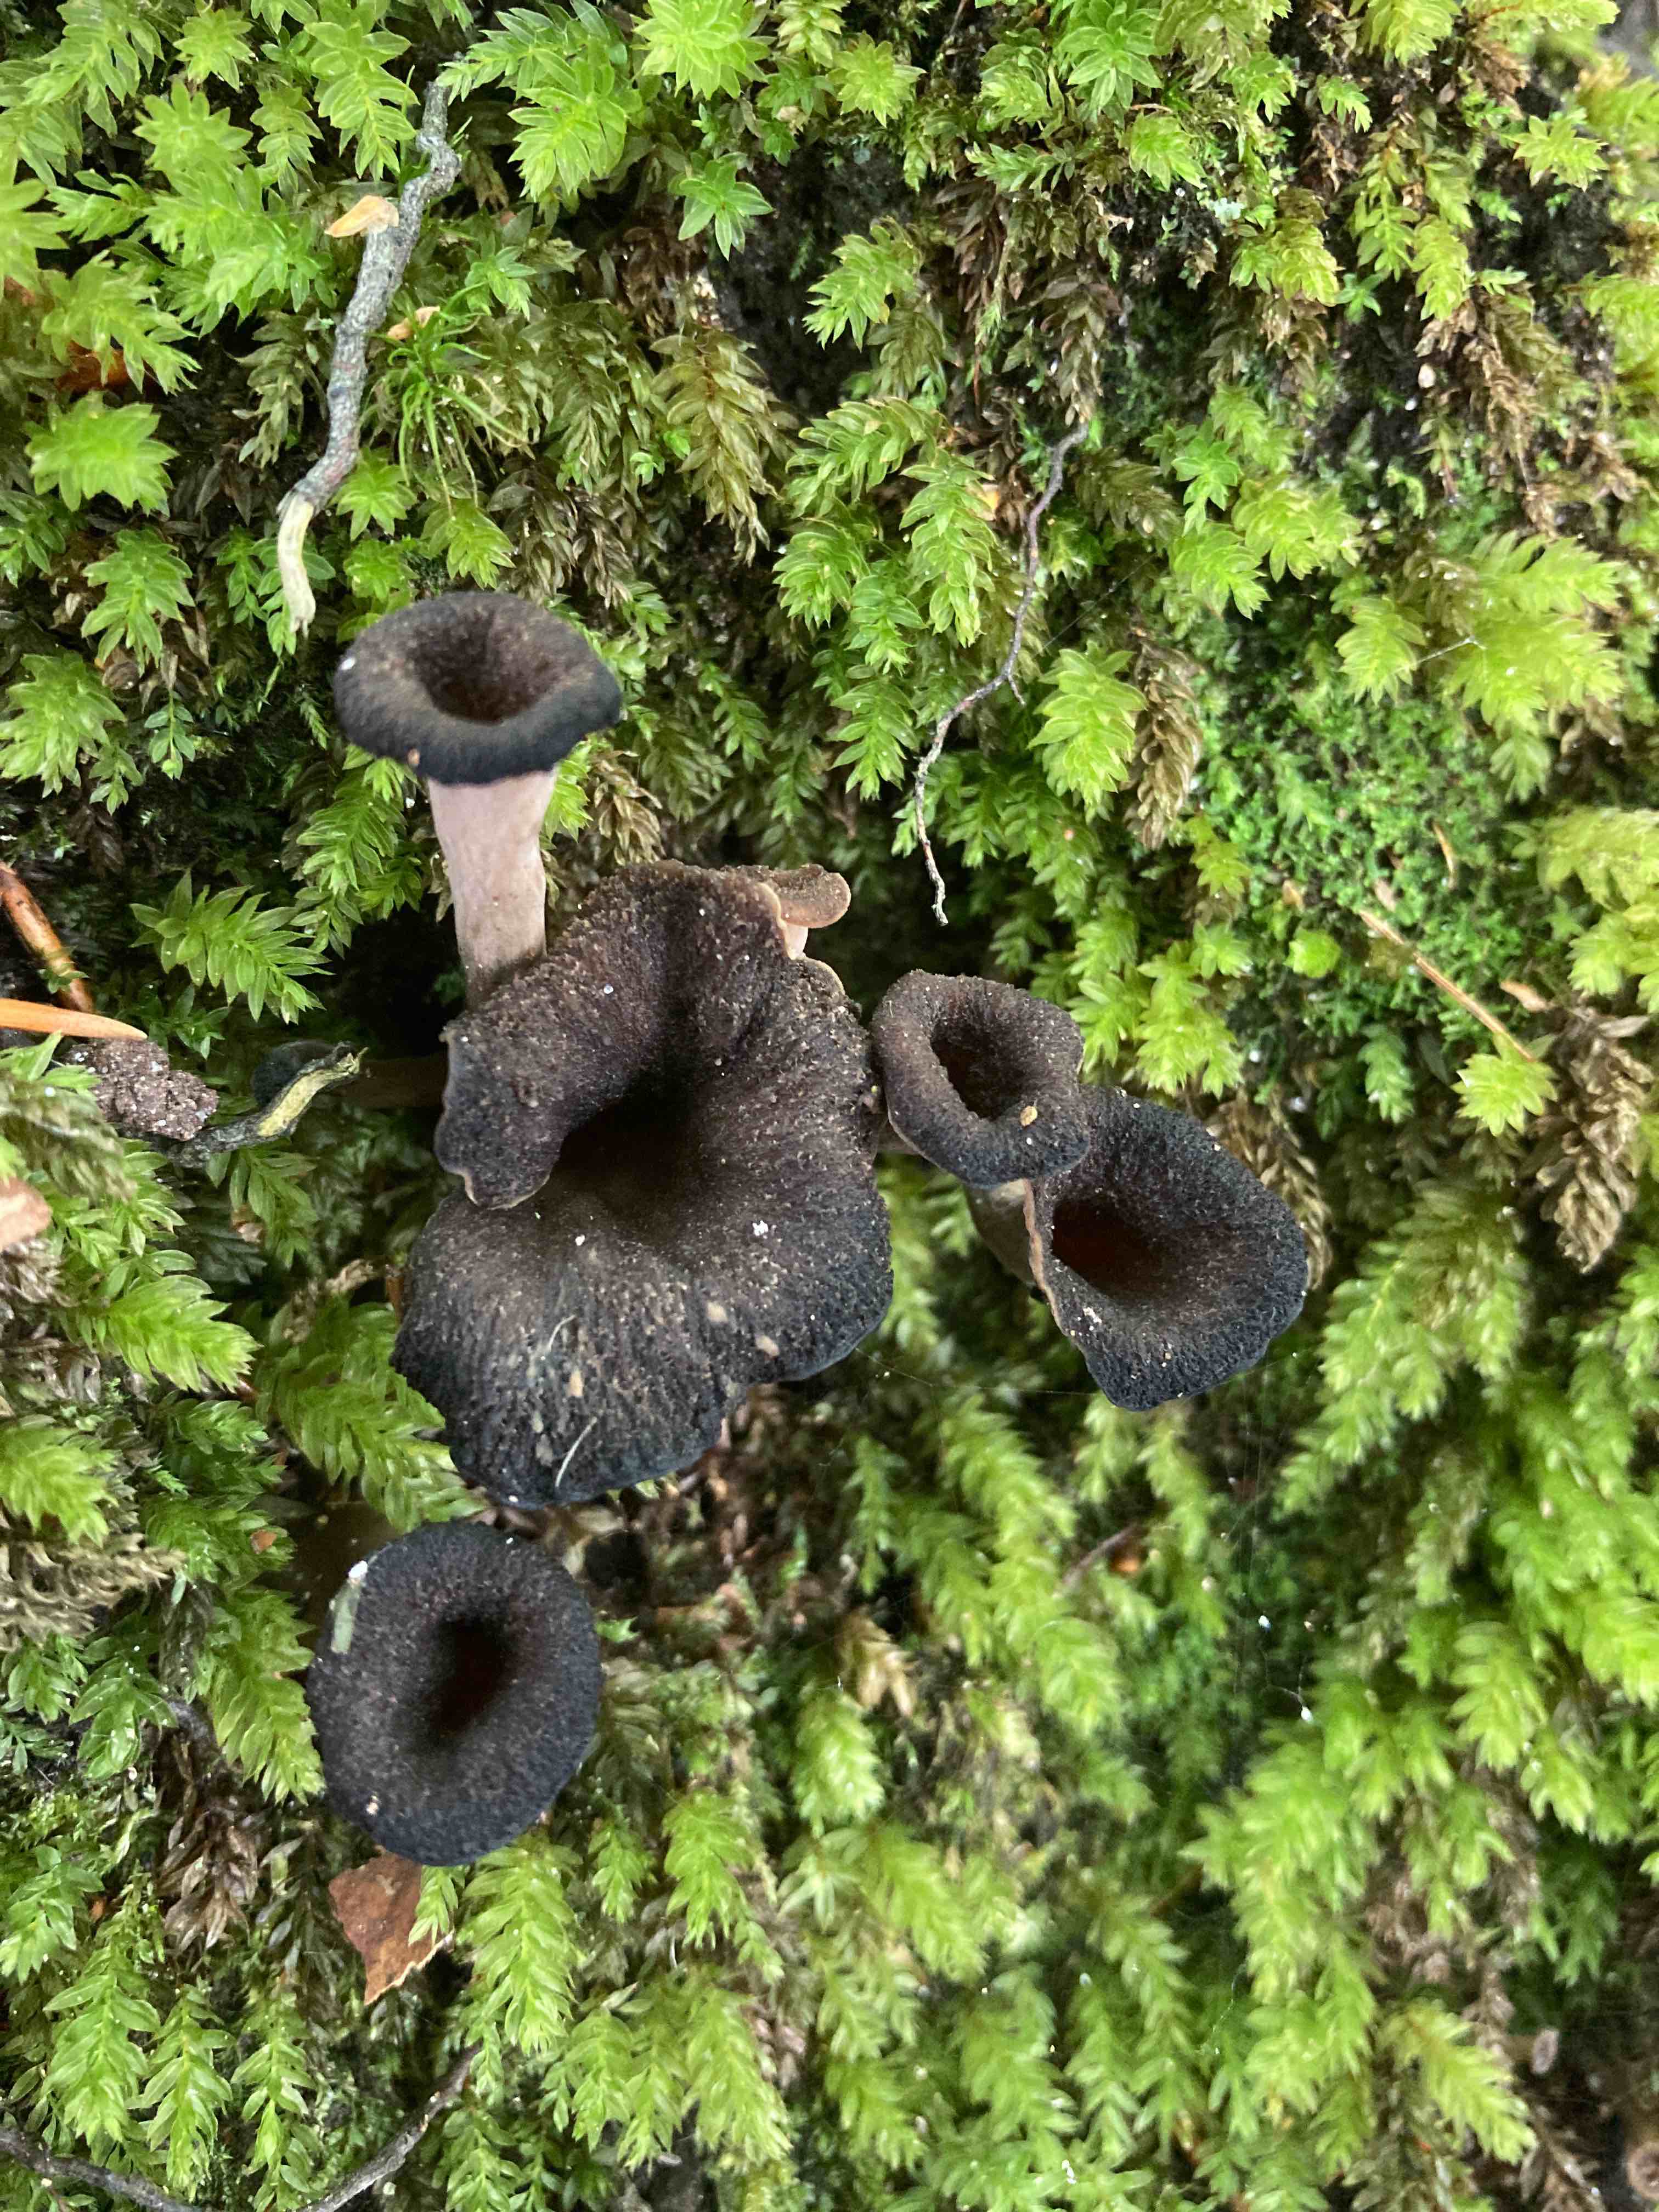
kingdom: Fungi
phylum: Basidiomycota
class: Agaricomycetes
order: Cantharellales
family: Hydnaceae
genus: Craterellus
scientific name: Craterellus cornucopioides
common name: trompetsvamp
